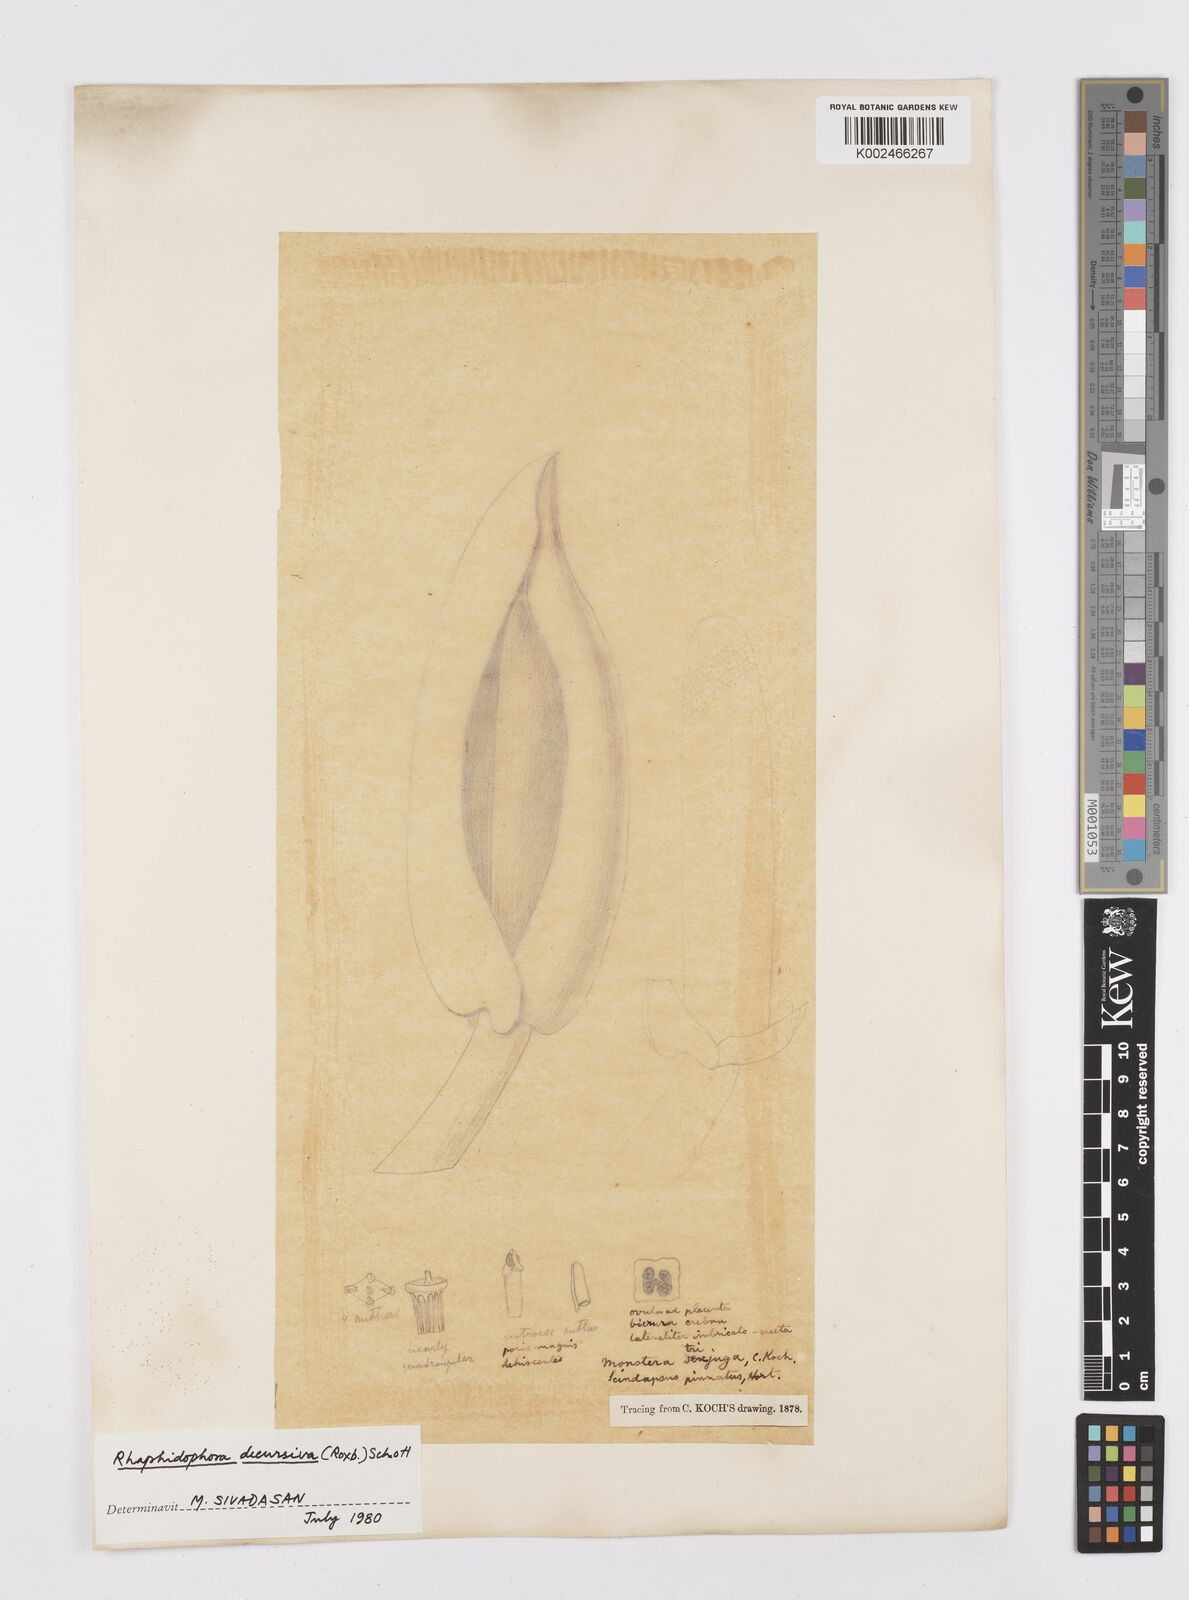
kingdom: Plantae
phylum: Tracheophyta
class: Liliopsida
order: Alismatales
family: Araceae
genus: Rhaphidophora
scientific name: Rhaphidophora decursiva
